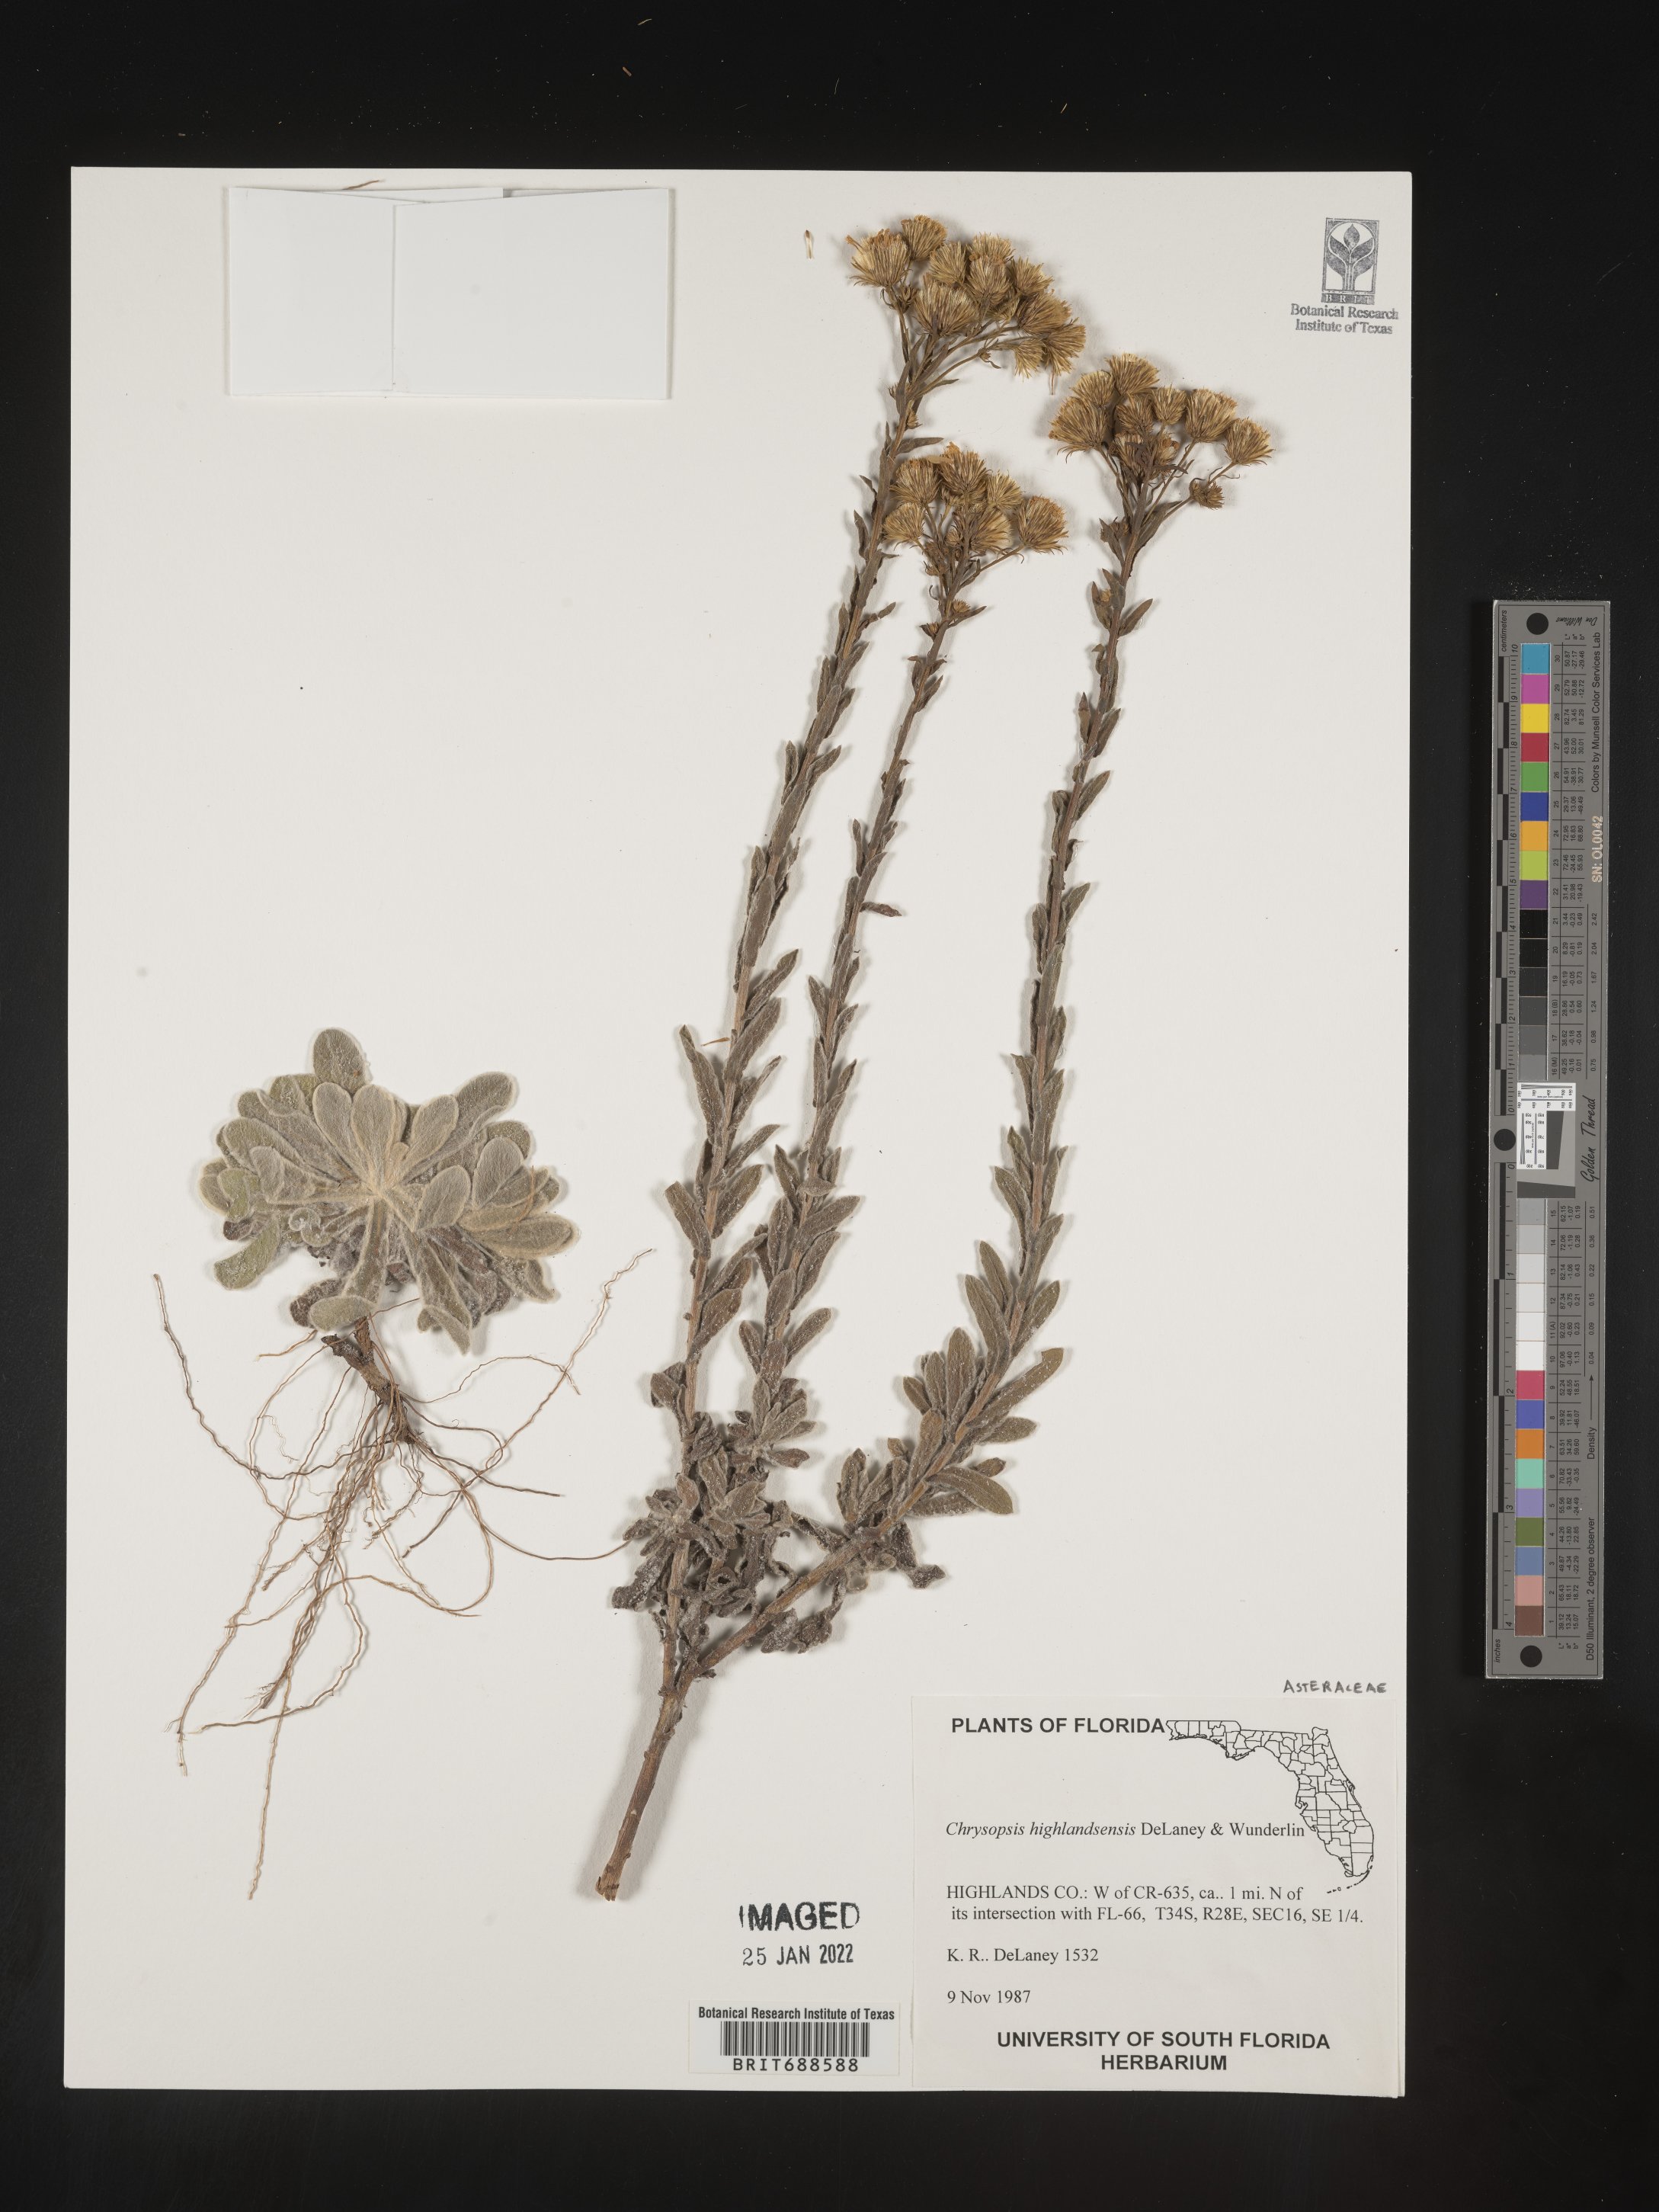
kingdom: Plantae
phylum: Tracheophyta
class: Magnoliopsida
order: Asterales
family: Asteraceae
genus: Chrysopsis
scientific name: Chrysopsis floridana
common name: Florida golden-aster
